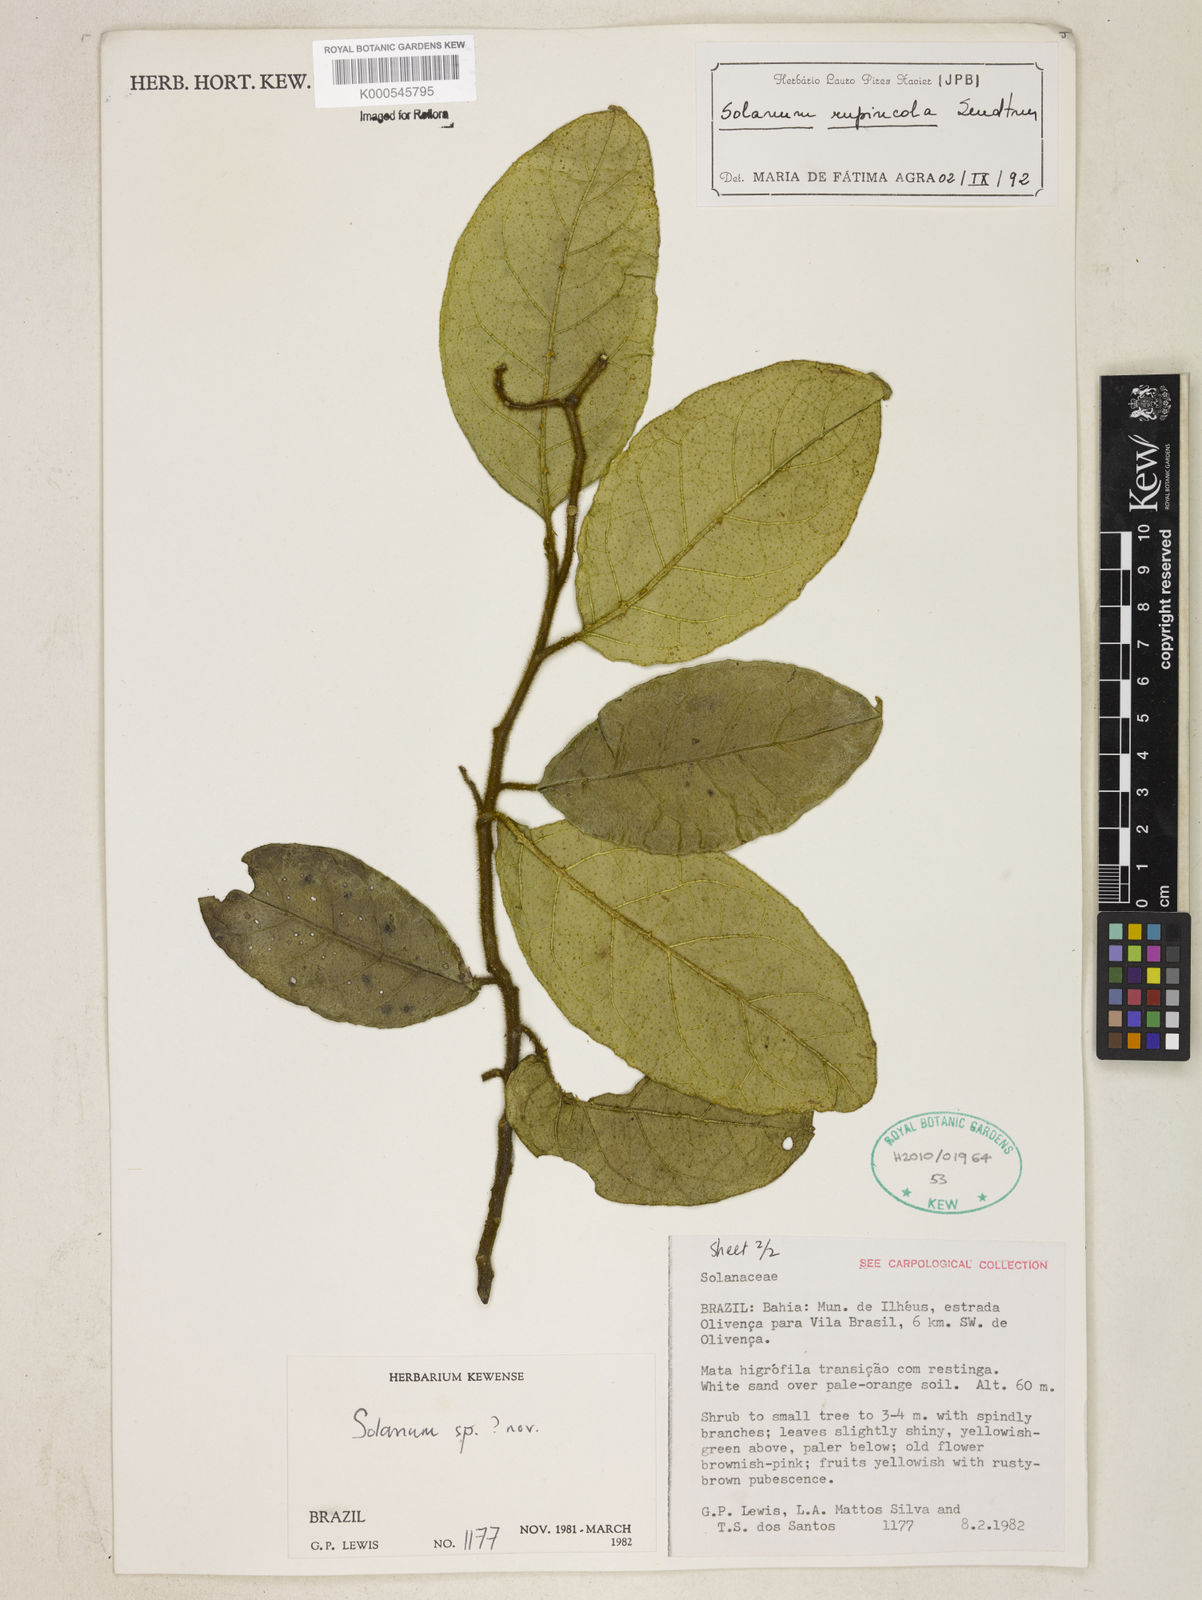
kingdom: Plantae
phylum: Tracheophyta
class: Magnoliopsida
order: Solanales
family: Solanaceae
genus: Solanum
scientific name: Solanum rupincola
